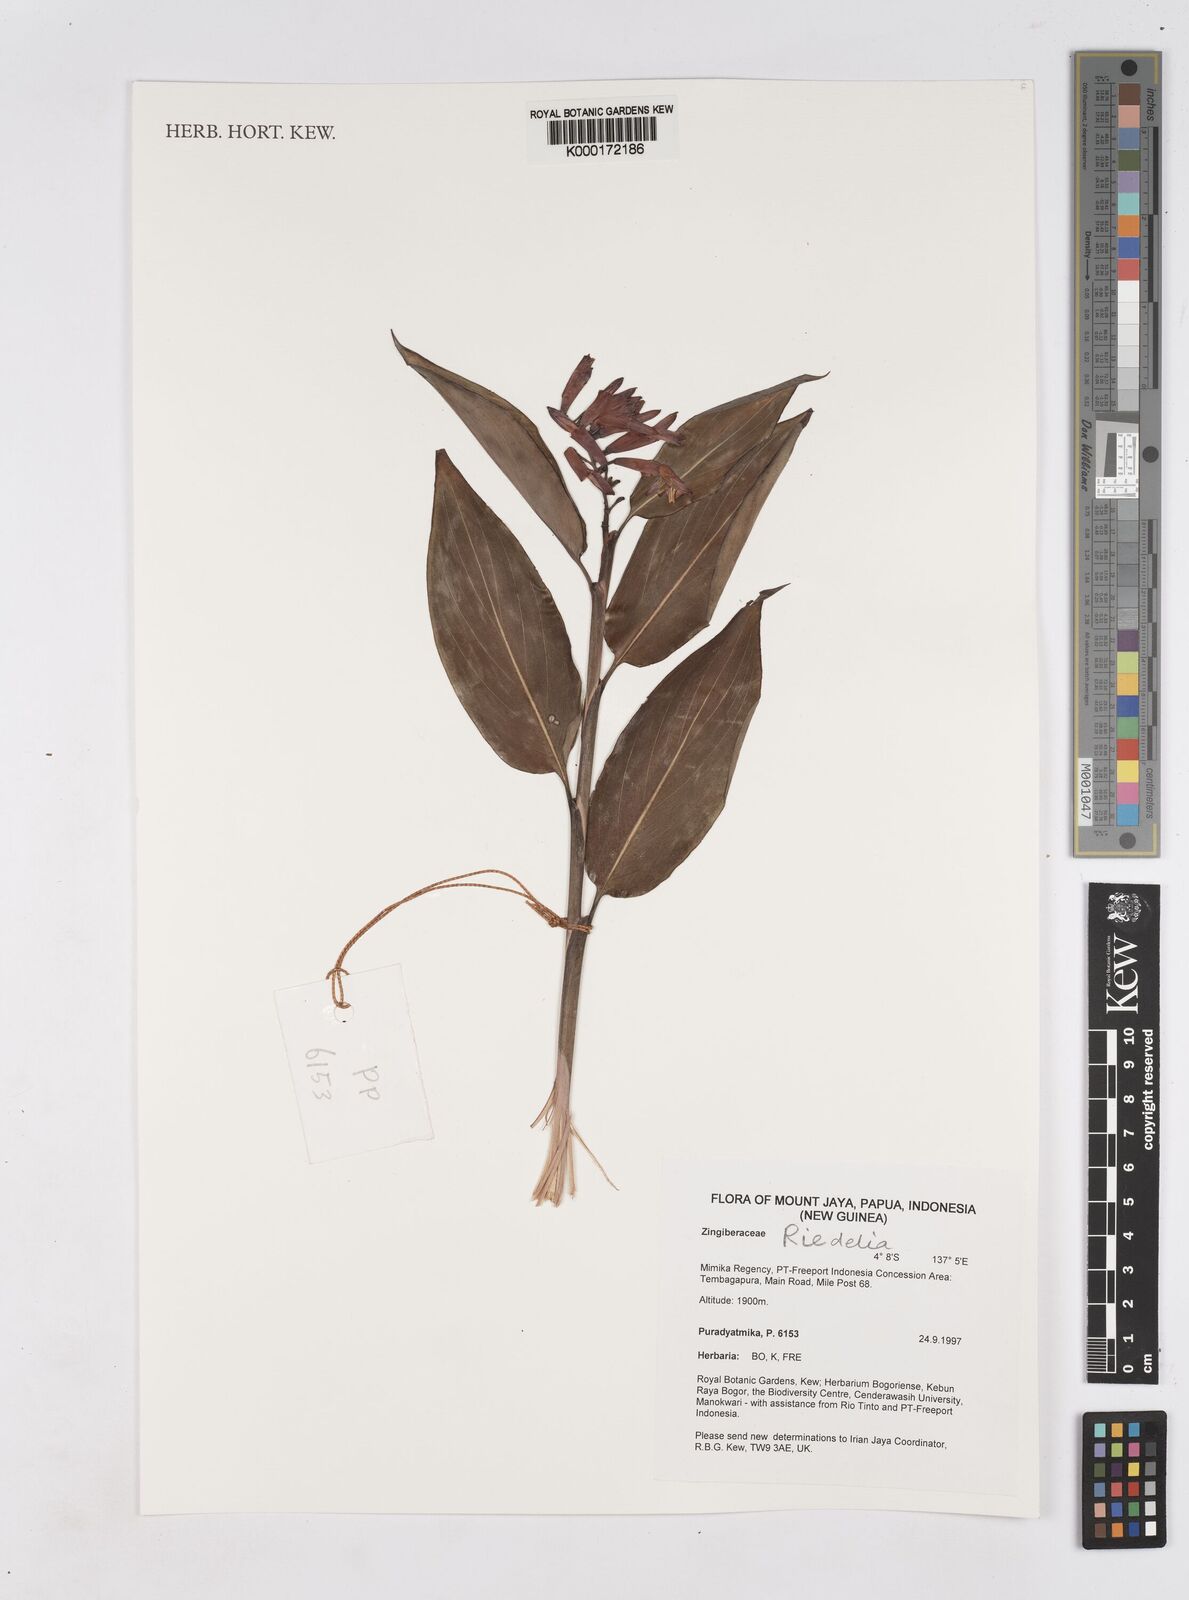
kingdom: Plantae
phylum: Tracheophyta
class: Liliopsida
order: Zingiberales
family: Zingiberaceae
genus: Riedelia
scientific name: Riedelia
